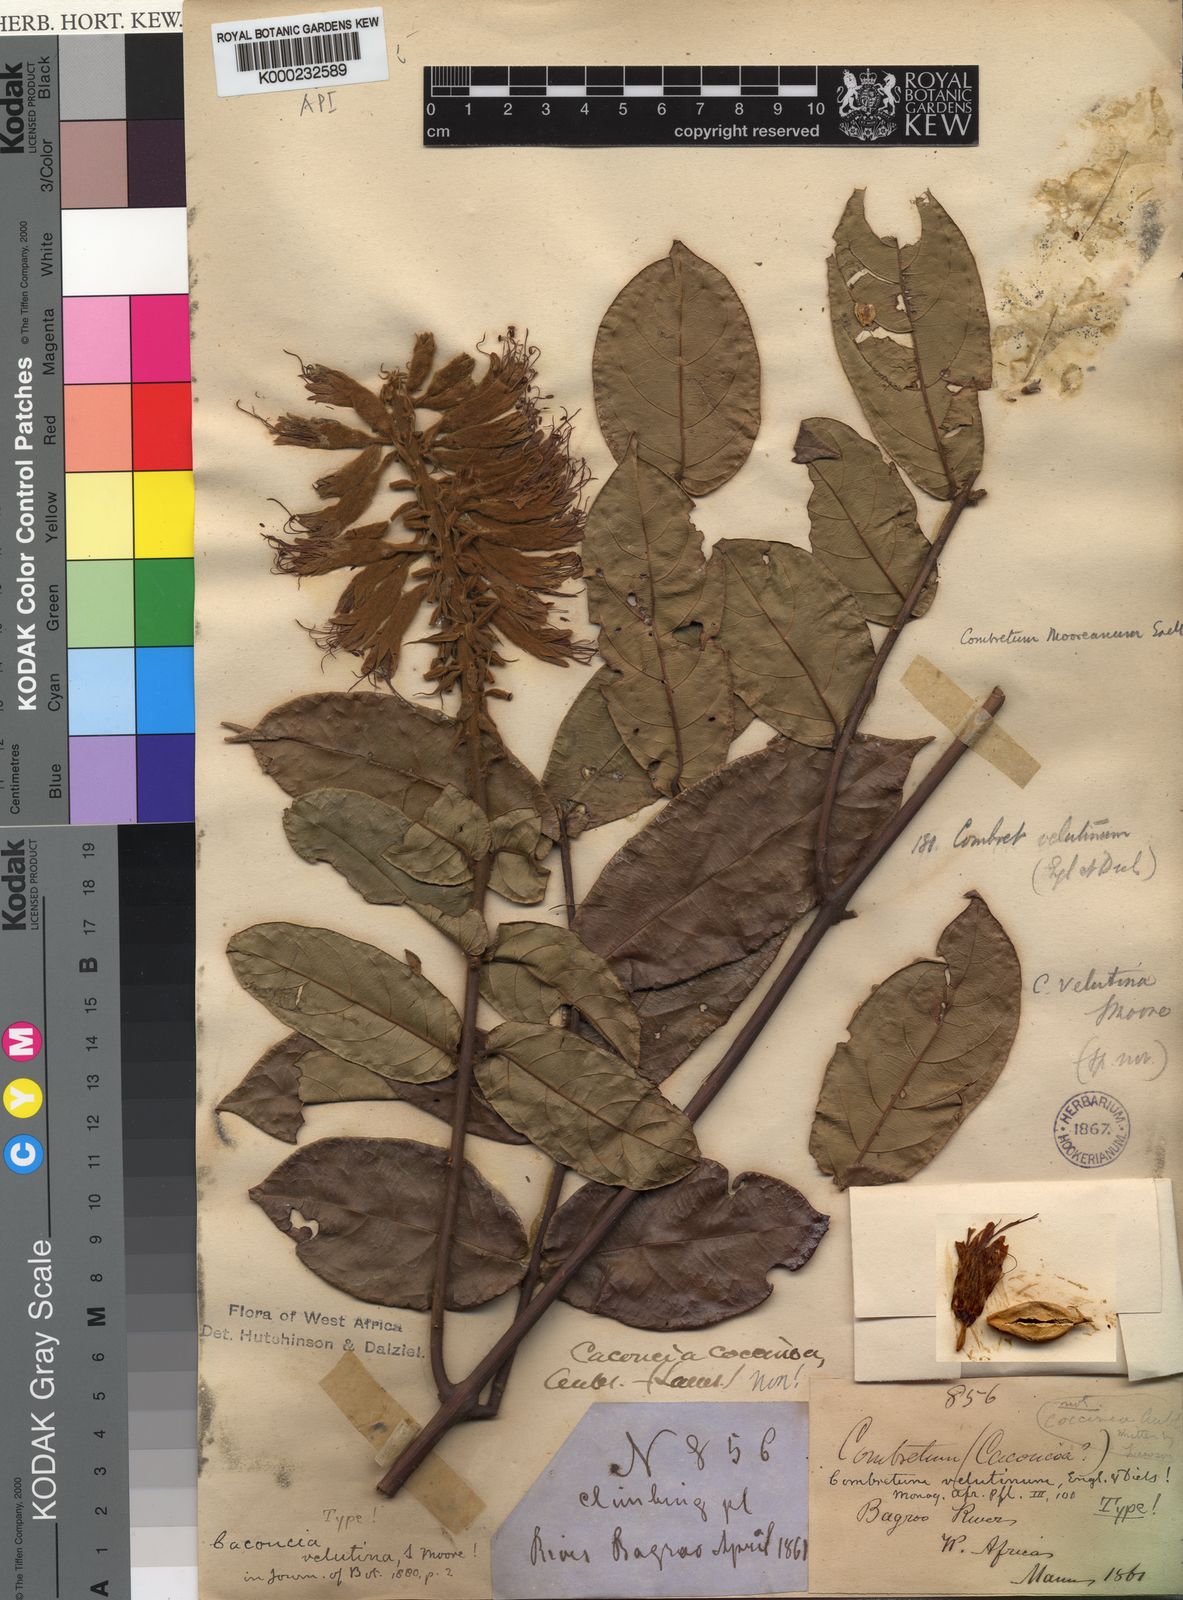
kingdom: Plantae
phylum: Tracheophyta
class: Magnoliopsida
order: Myrtales
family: Combretaceae
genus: Combretum
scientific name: Combretum mooreanum
